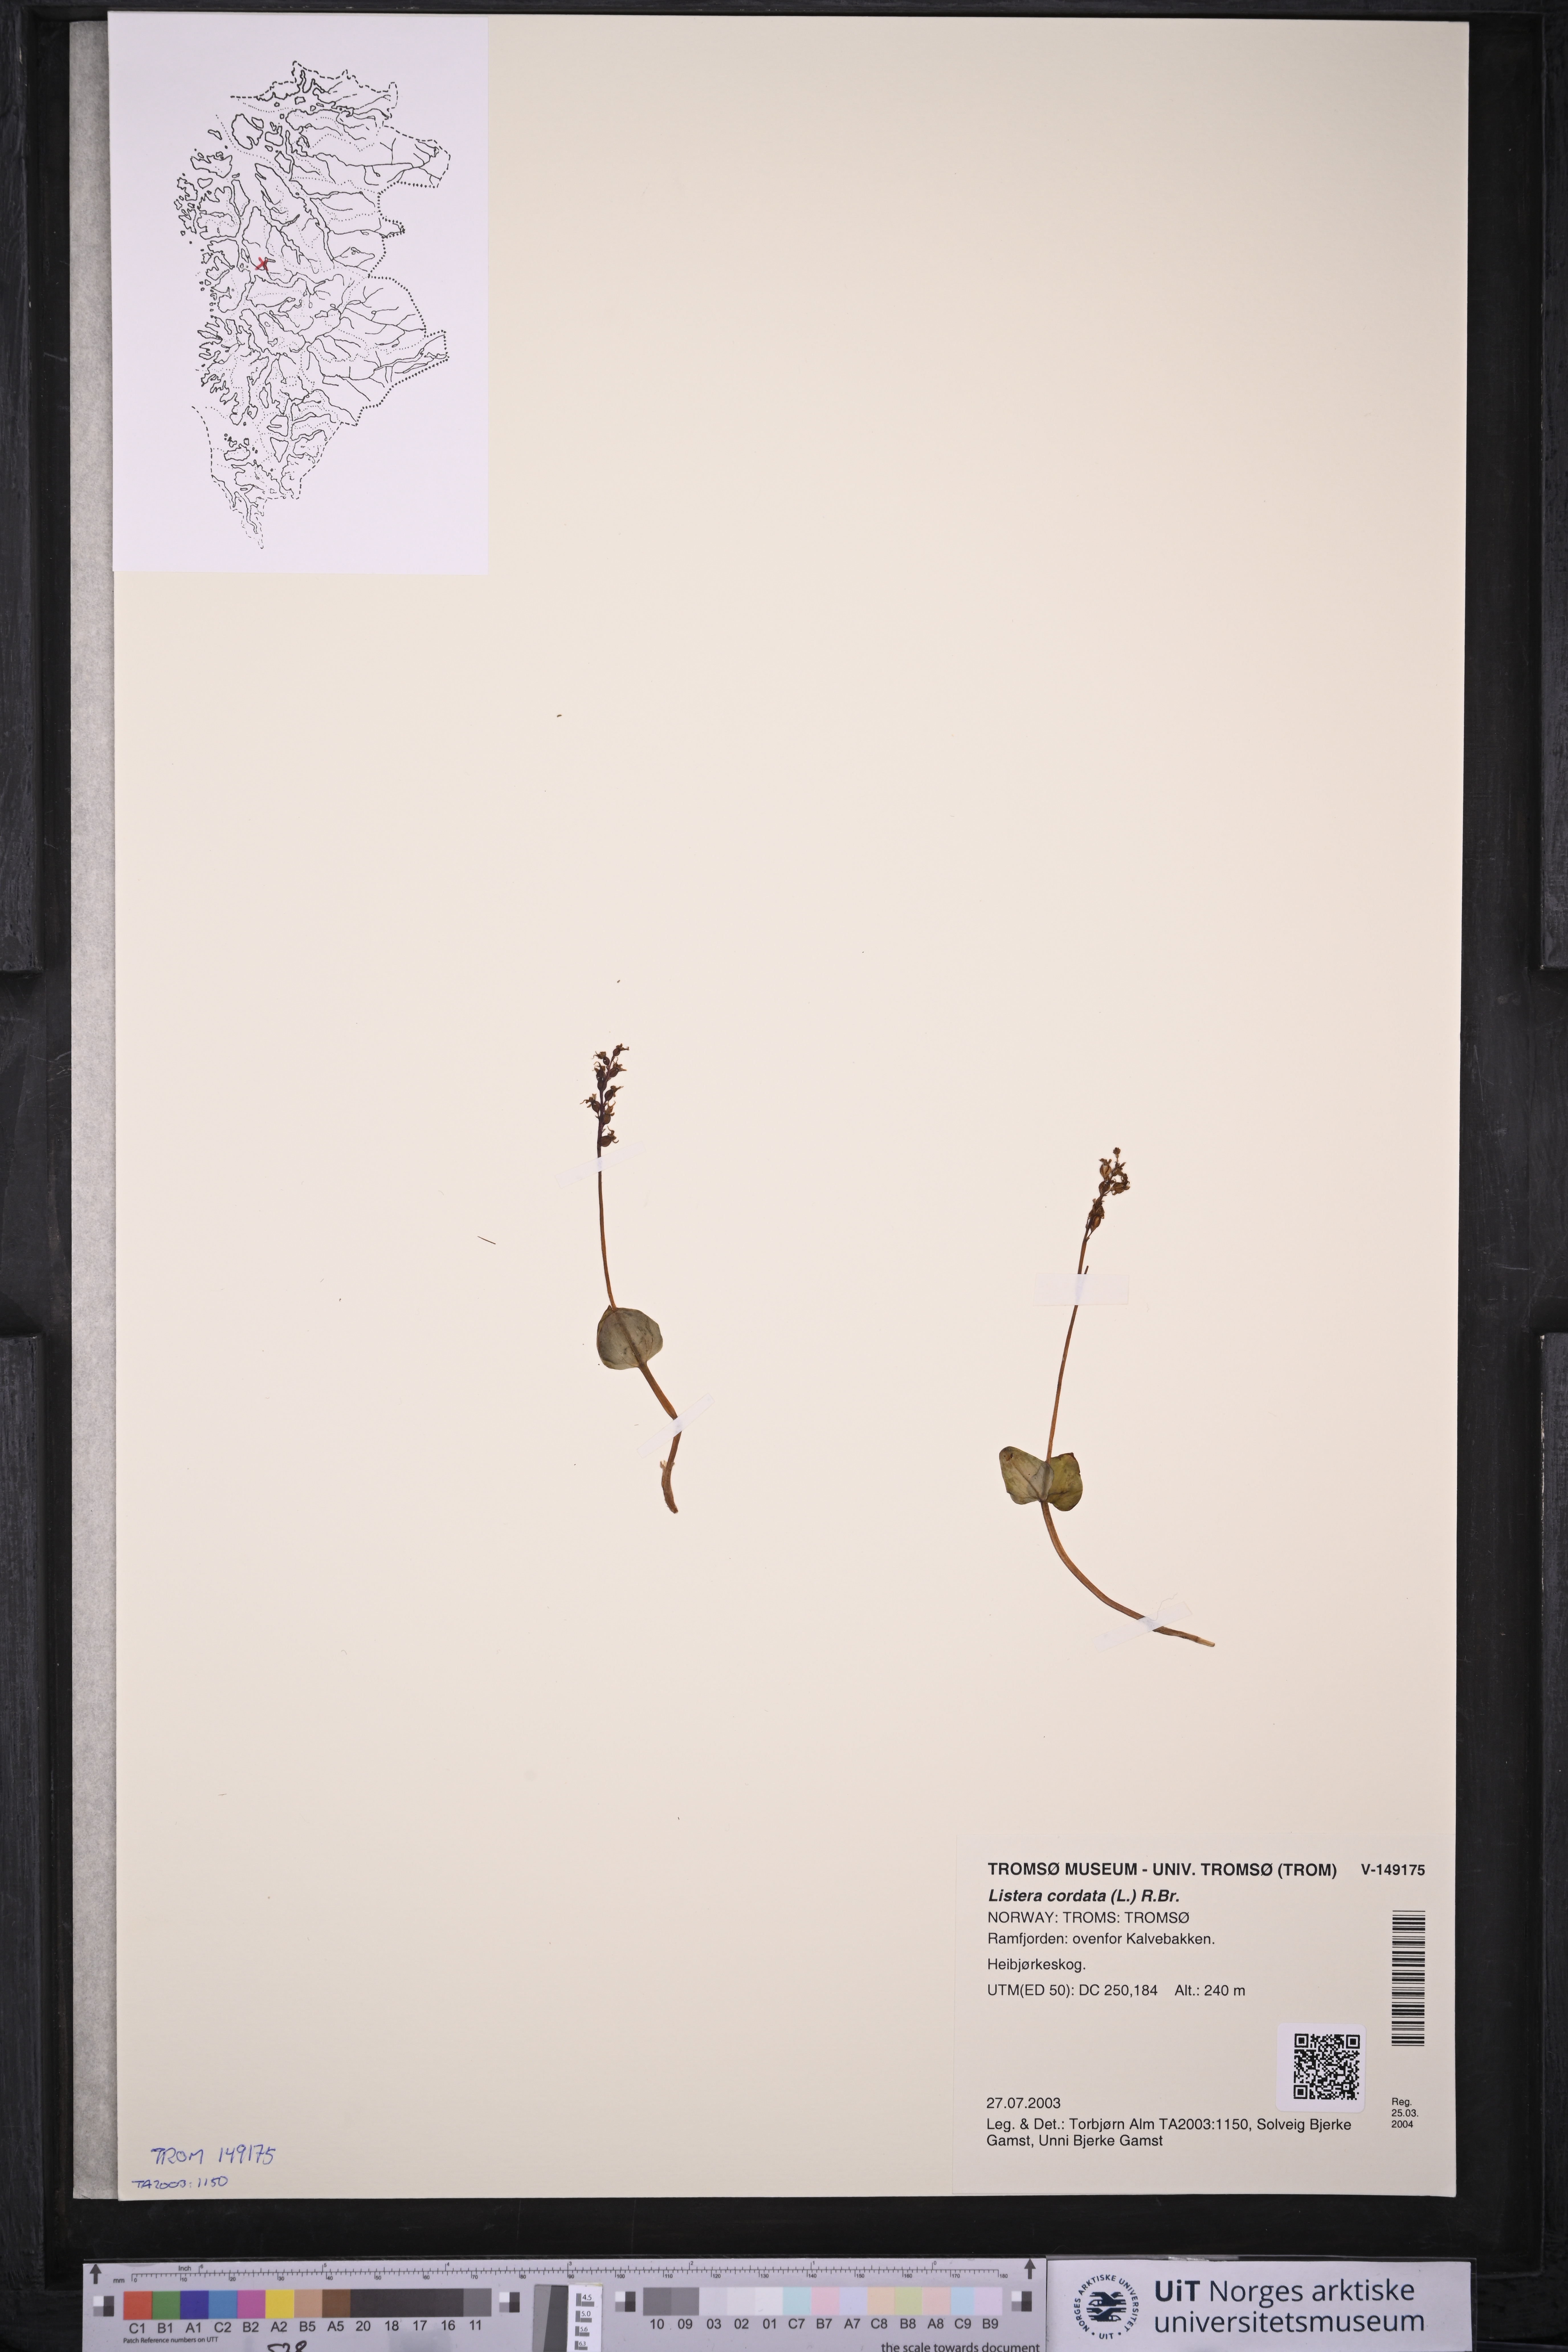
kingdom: Plantae
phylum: Tracheophyta
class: Liliopsida
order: Asparagales
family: Orchidaceae
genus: Neottia
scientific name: Neottia cordata
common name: Lesser twayblade
